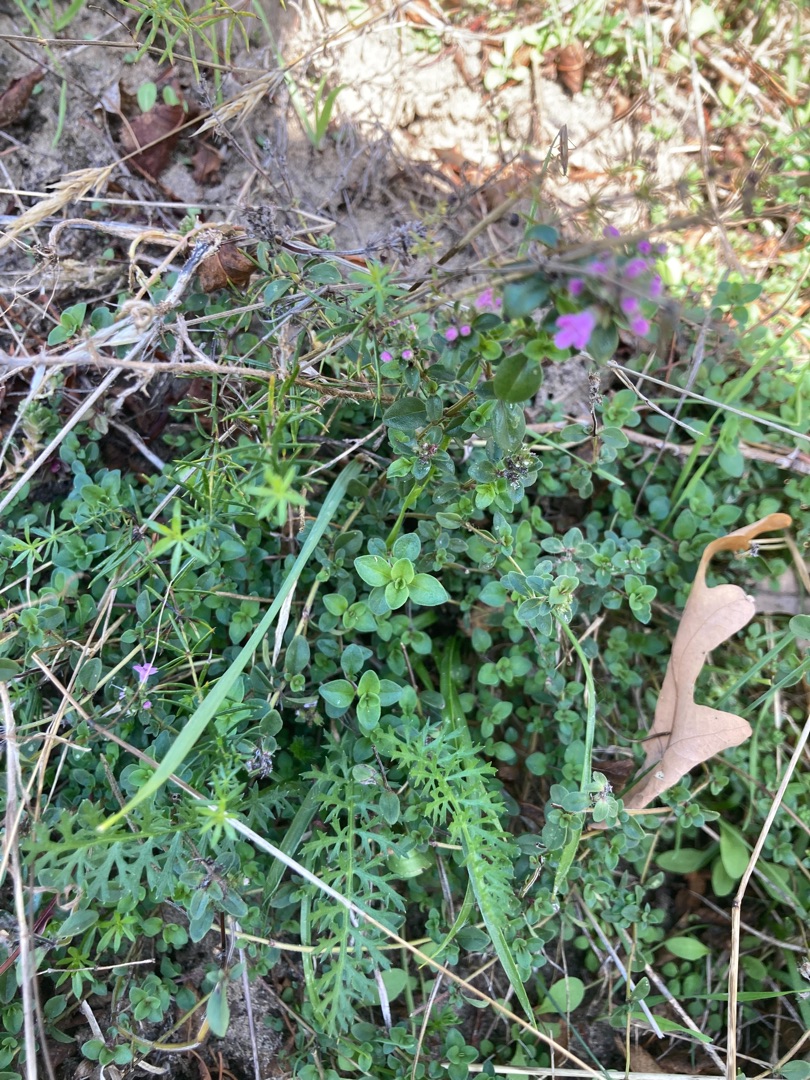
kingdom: Plantae
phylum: Tracheophyta
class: Magnoliopsida
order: Lamiales
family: Lamiaceae
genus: Thymus
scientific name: Thymus pulegioides
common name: Bredbladet timian
